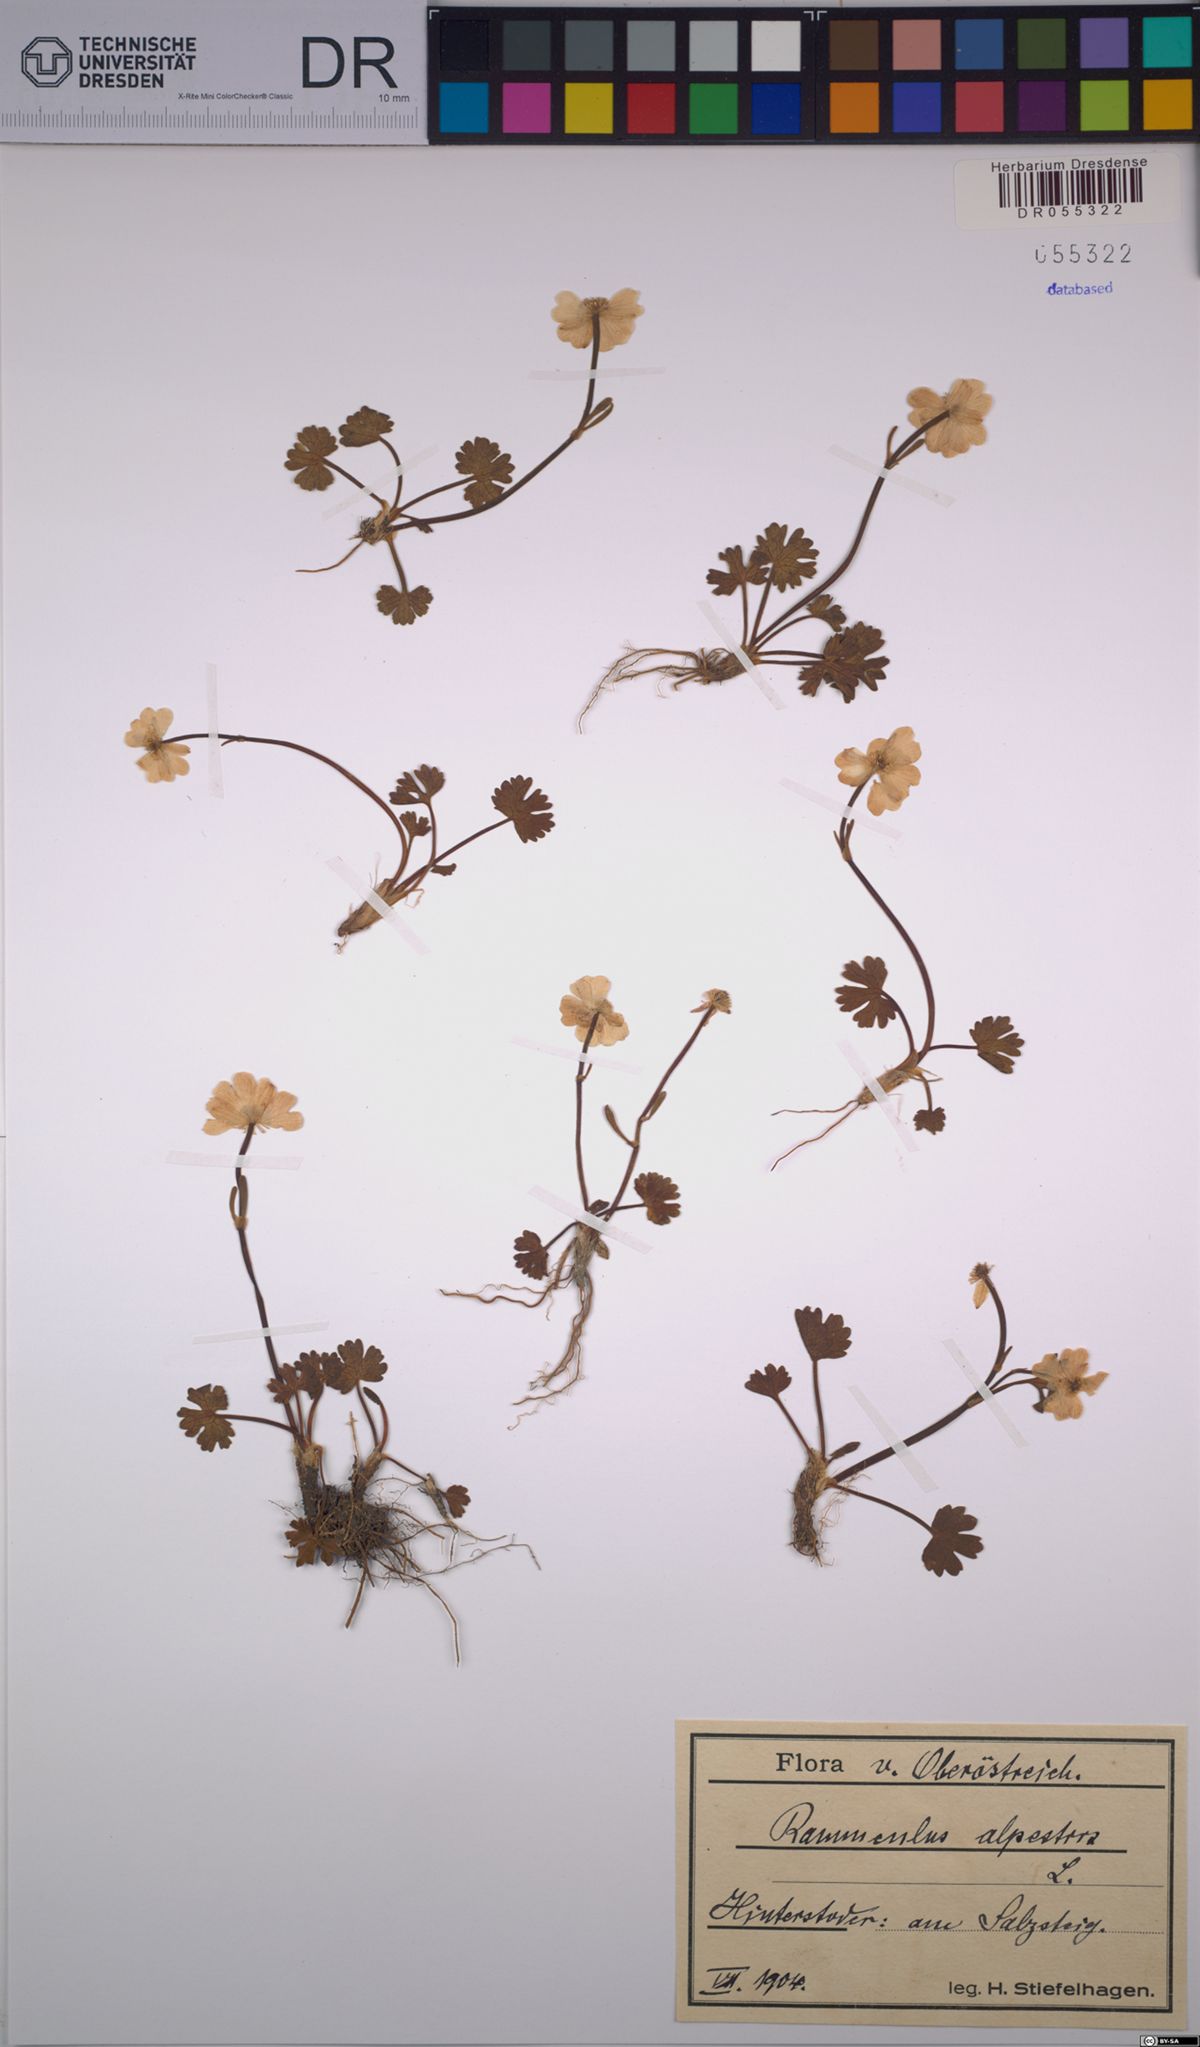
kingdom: Plantae
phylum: Tracheophyta
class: Magnoliopsida
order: Ranunculales
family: Ranunculaceae
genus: Ranunculus
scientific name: Ranunculus alpestris
